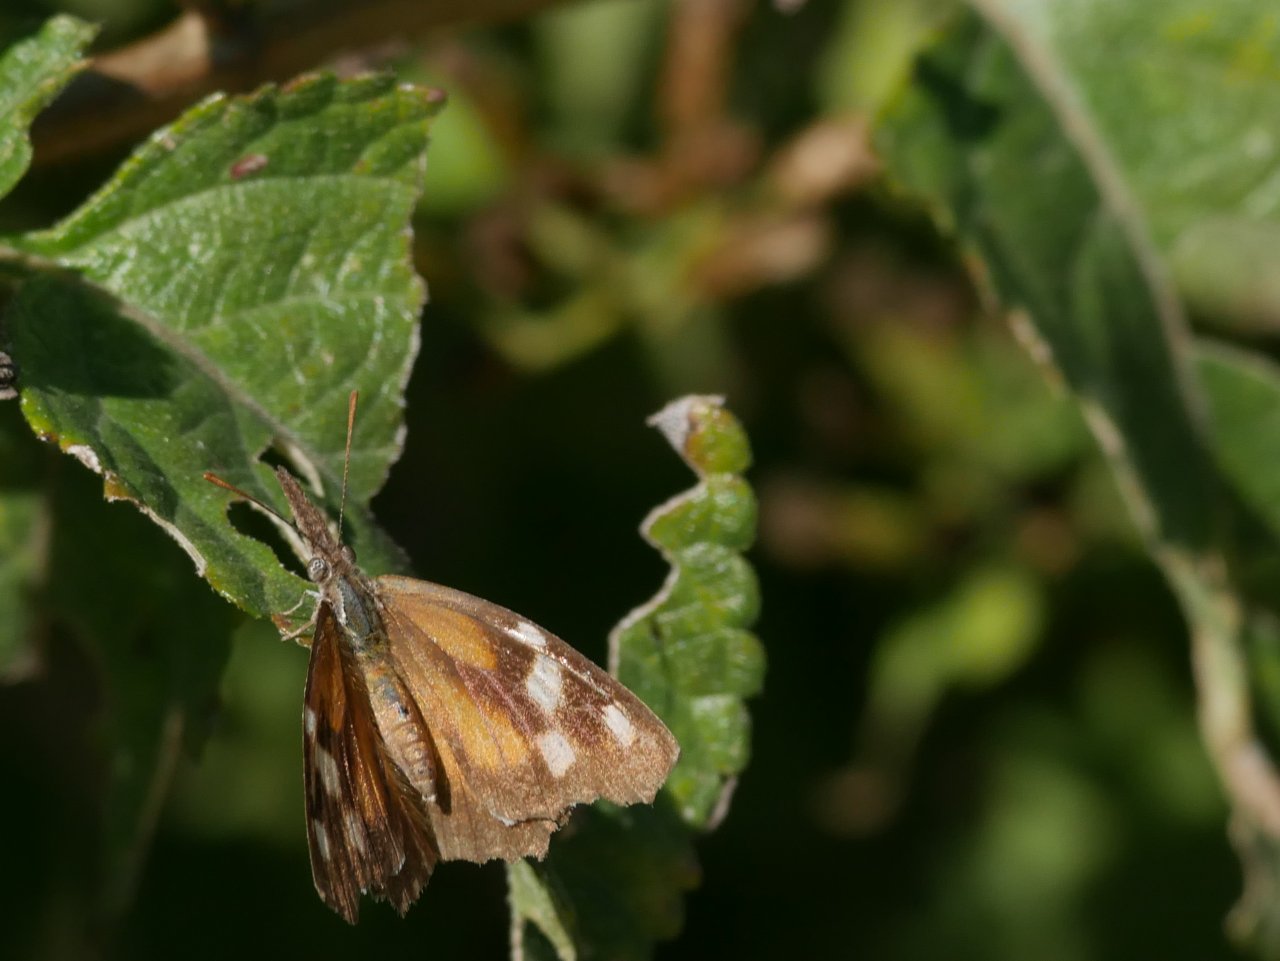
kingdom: Animalia
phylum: Arthropoda
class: Insecta
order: Lepidoptera
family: Nymphalidae
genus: Libytheana
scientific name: Libytheana carinenta
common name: American Snout
